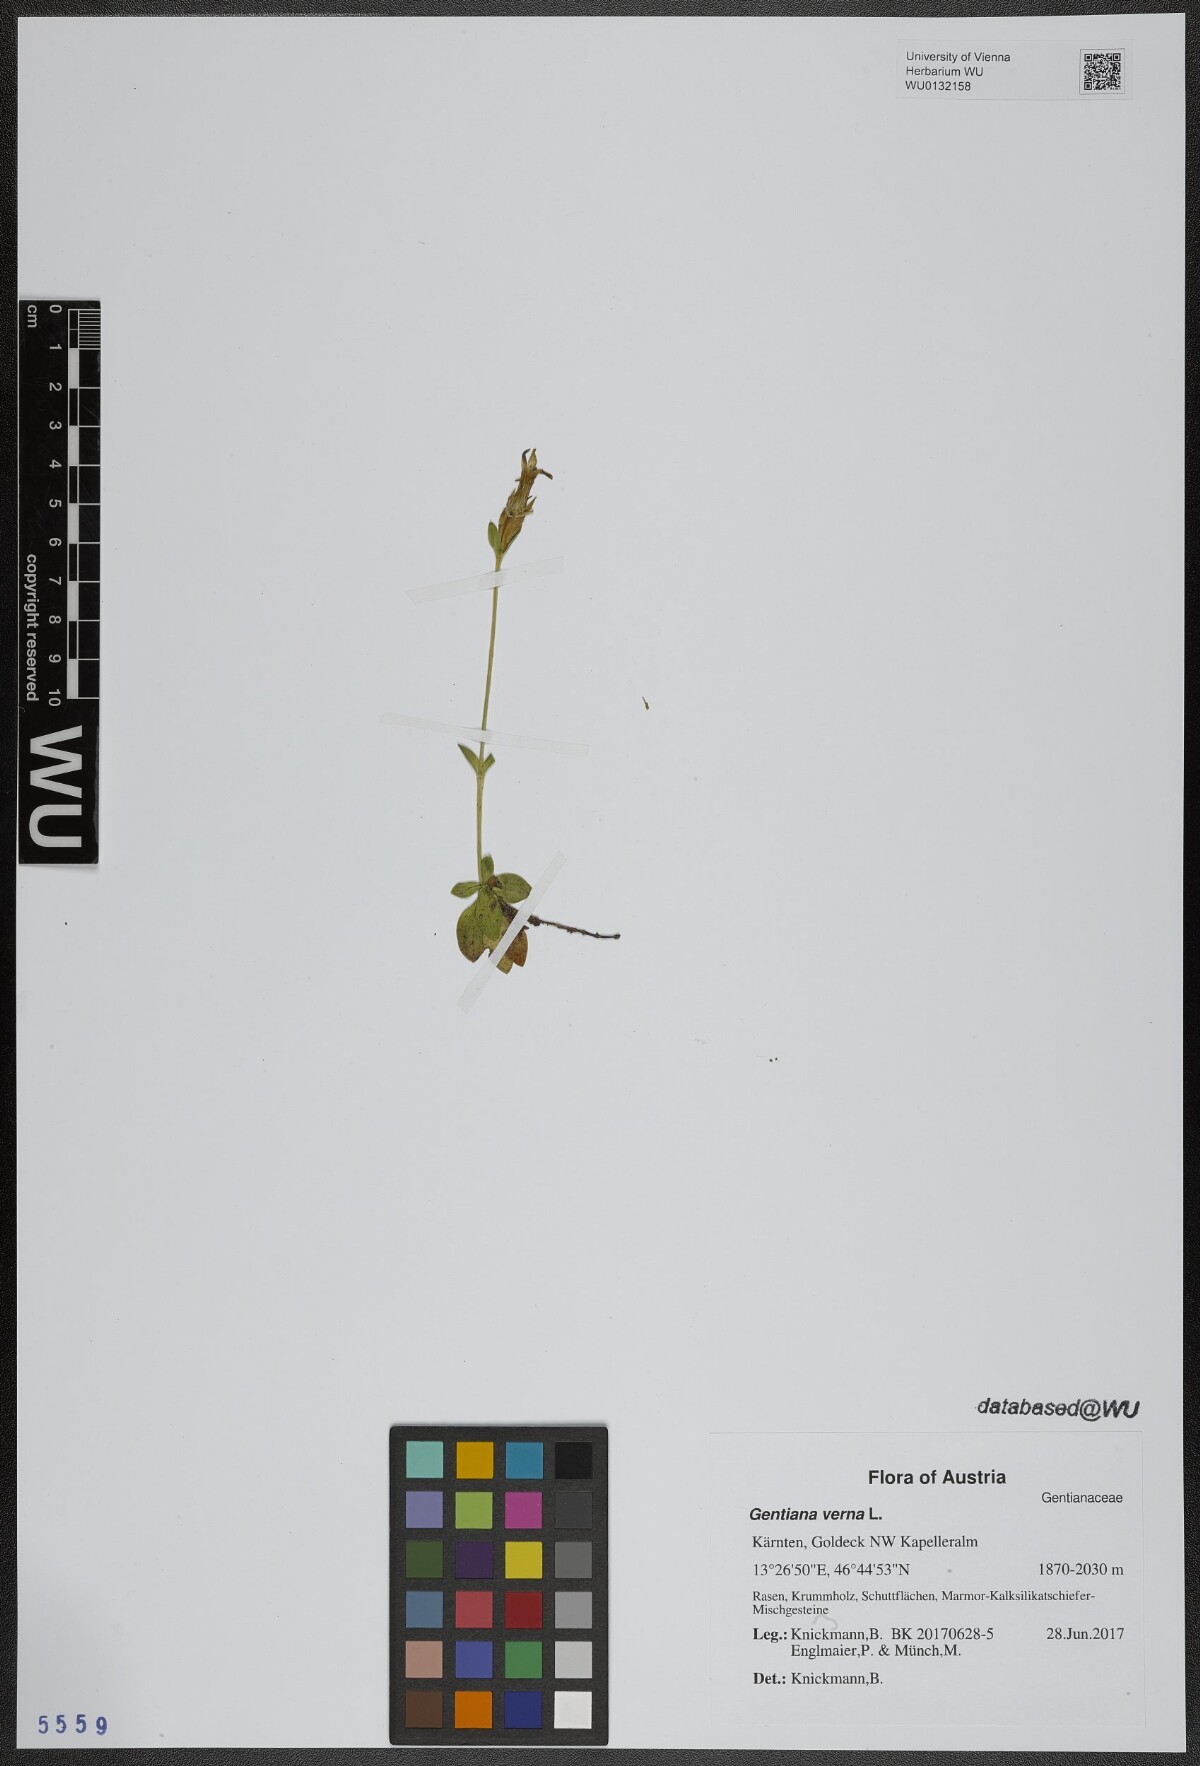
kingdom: Plantae
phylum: Tracheophyta
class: Magnoliopsida
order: Gentianales
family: Gentianaceae
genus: Gentiana
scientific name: Gentiana verna
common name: Spring gentian
